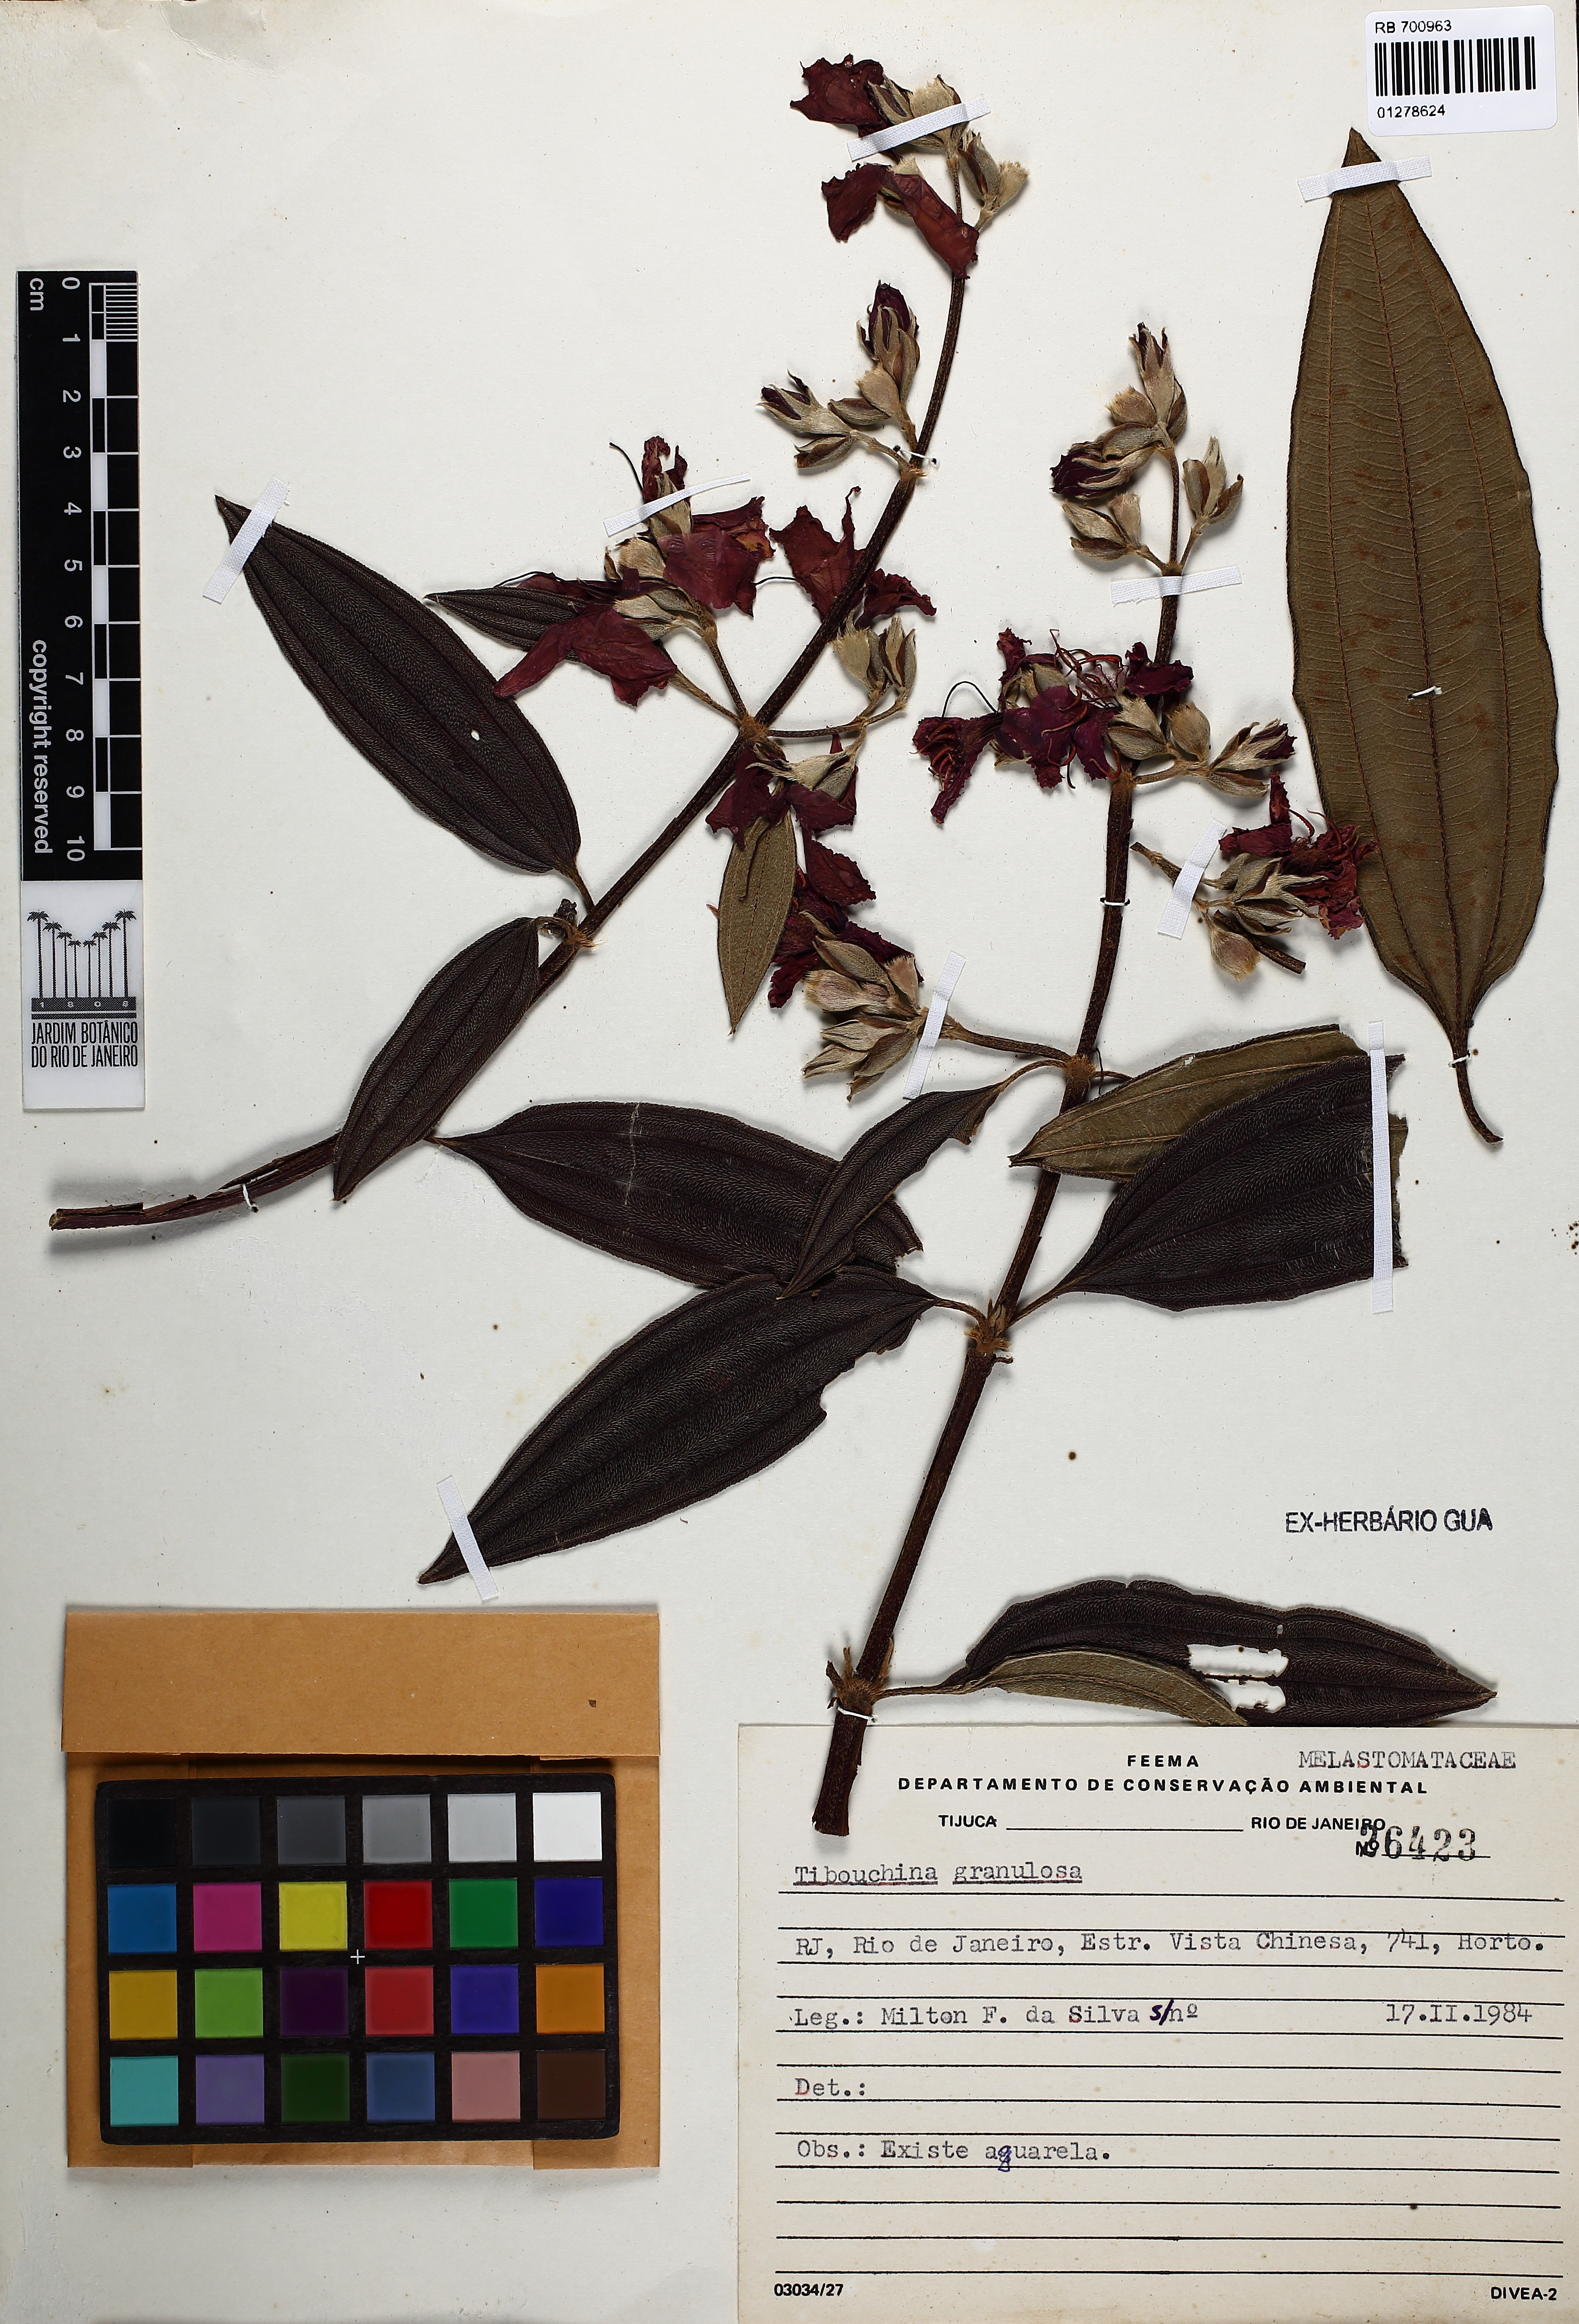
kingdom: Plantae
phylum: Tracheophyta
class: Magnoliopsida
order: Myrtales
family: Melastomataceae
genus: Pleroma
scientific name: Pleroma granulosum
